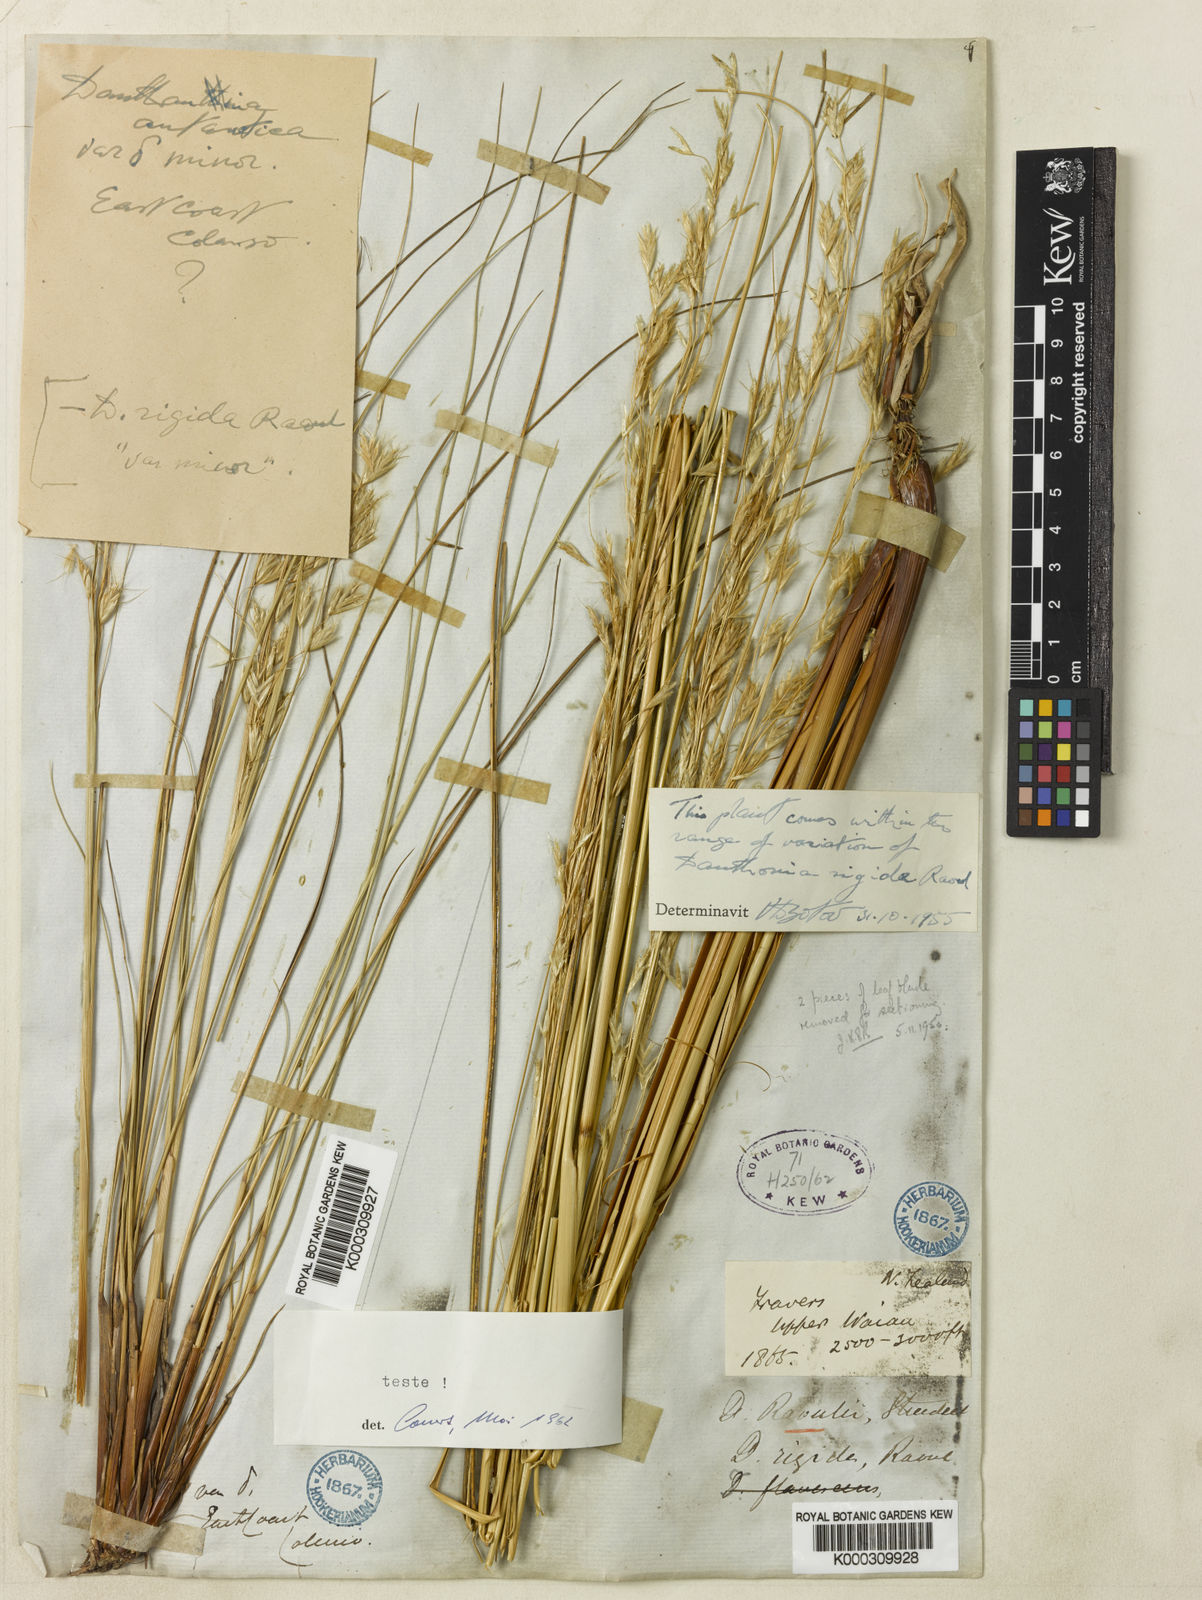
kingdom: Plantae
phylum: Tracheophyta
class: Liliopsida
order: Poales
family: Poaceae
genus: Chionochloa
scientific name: Chionochloa rubra
